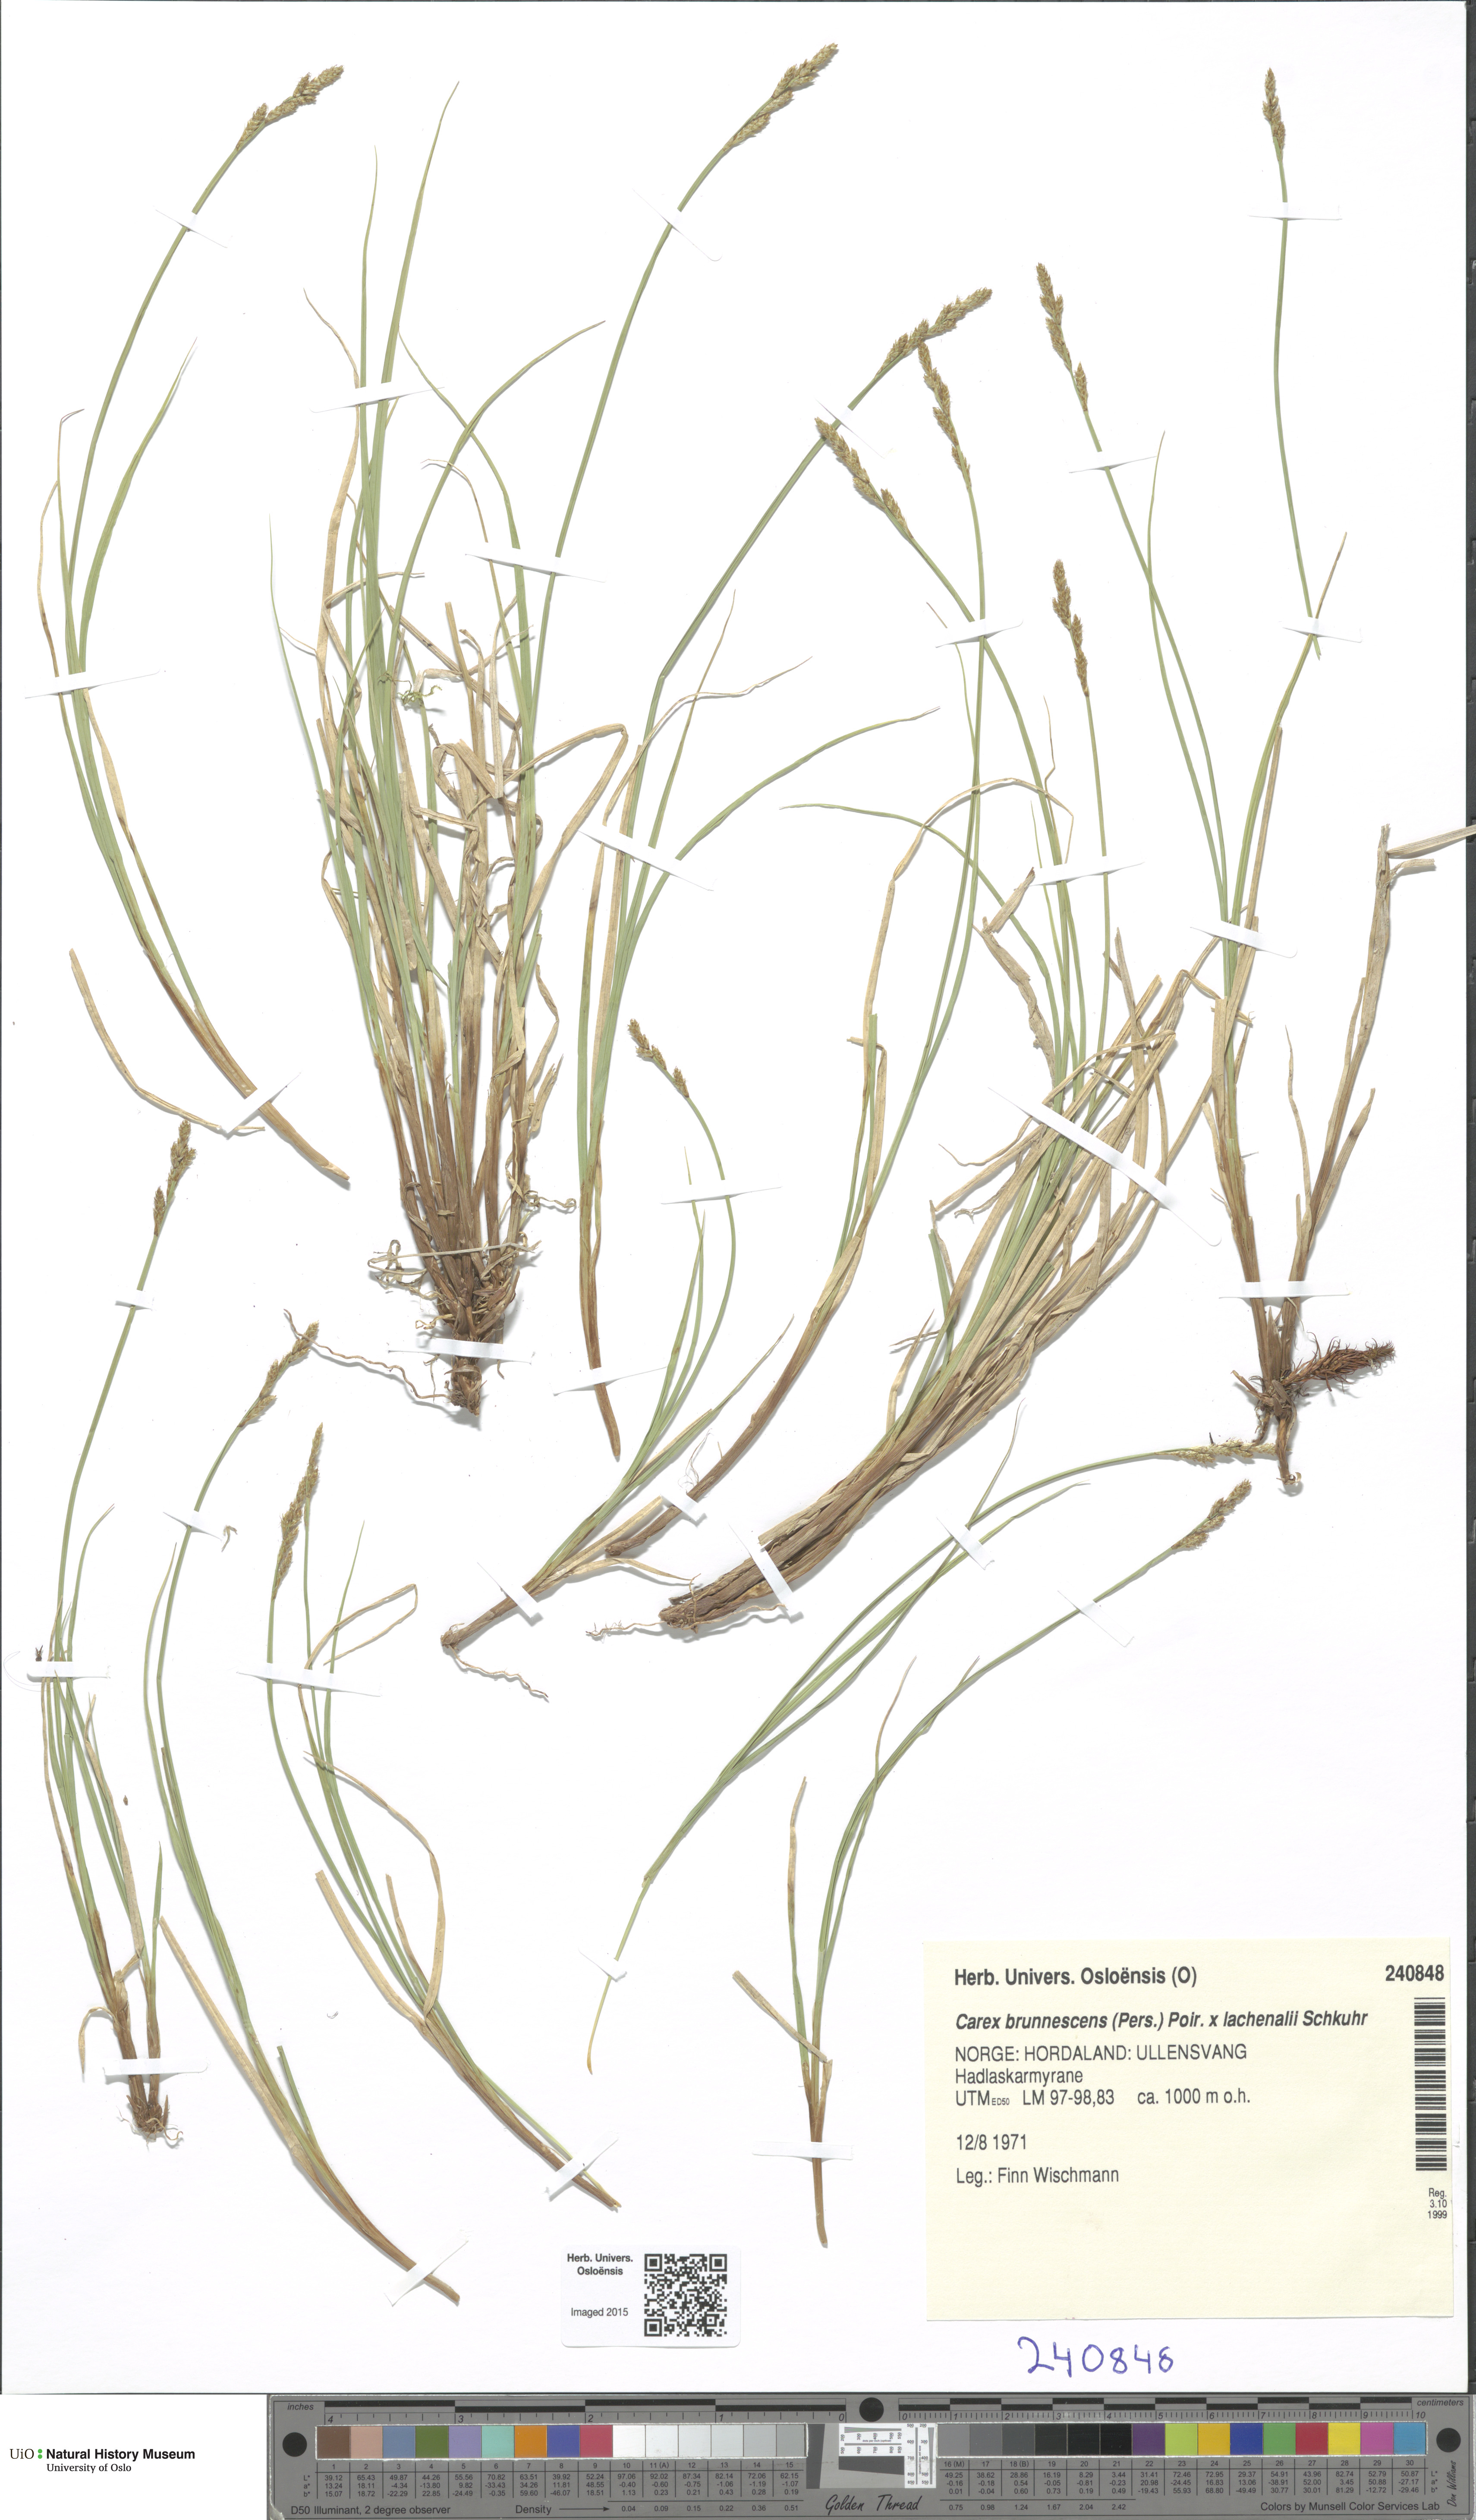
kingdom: Plantae
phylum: Tracheophyta
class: Liliopsida
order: Poales
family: Cyperaceae
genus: Carex
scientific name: Carex
